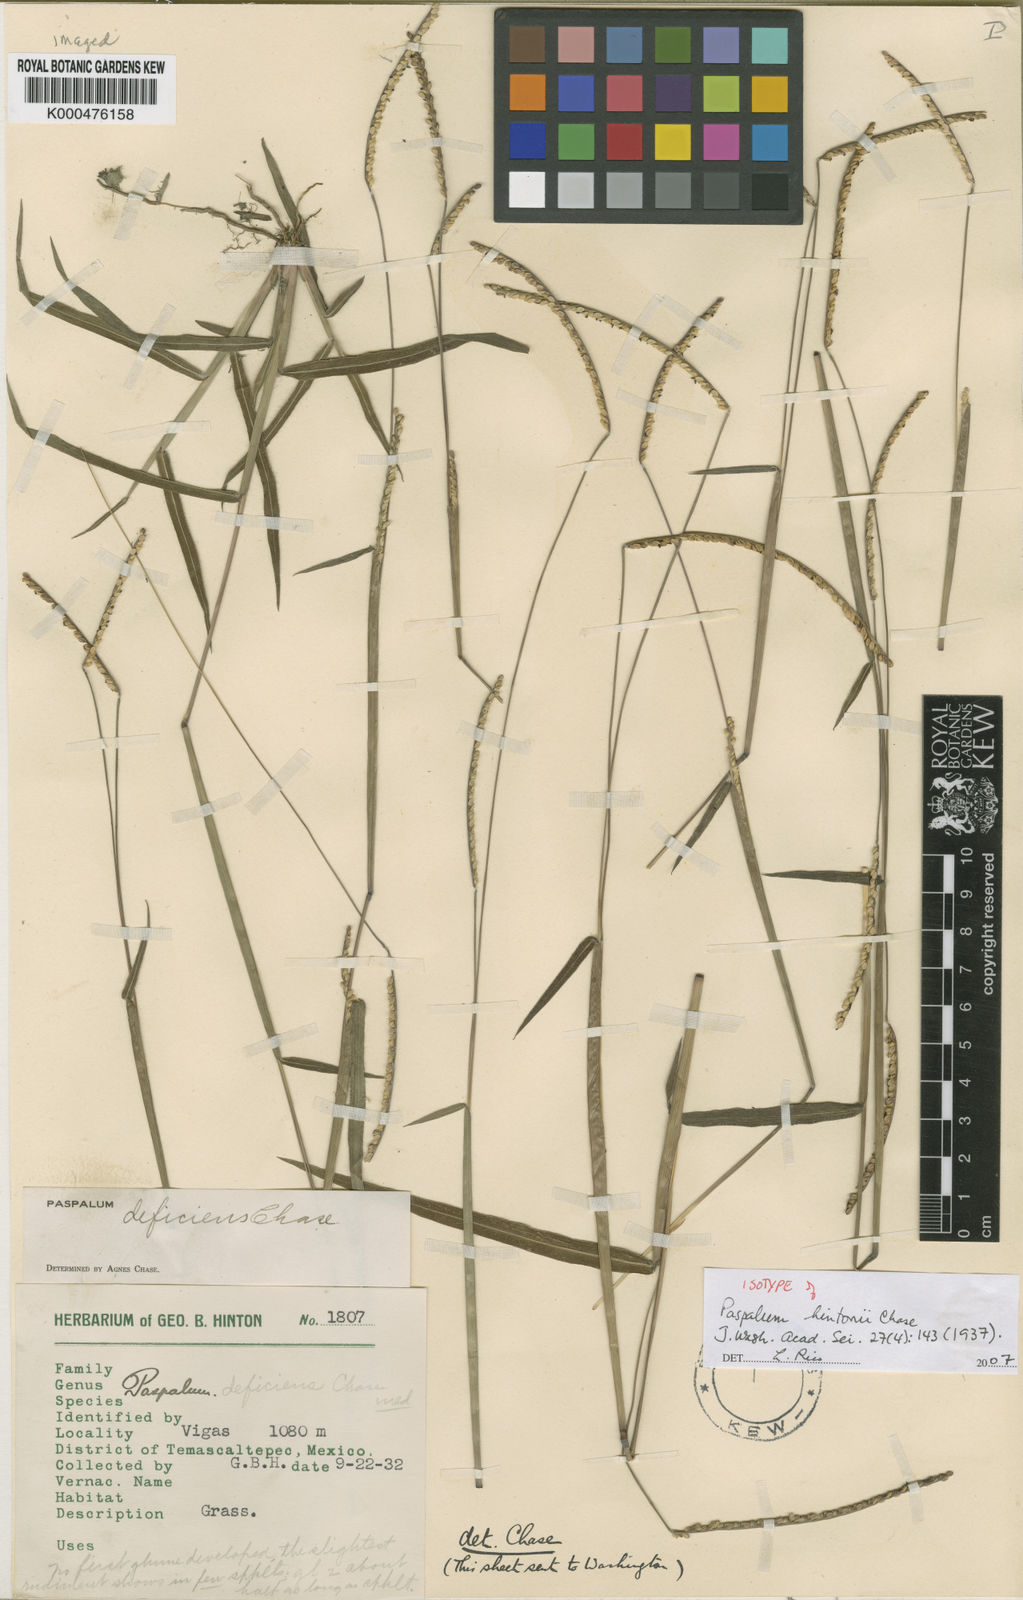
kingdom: Plantae
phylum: Tracheophyta
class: Liliopsida
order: Poales
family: Poaceae
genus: Paspalum
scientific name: Paspalum hintonii
